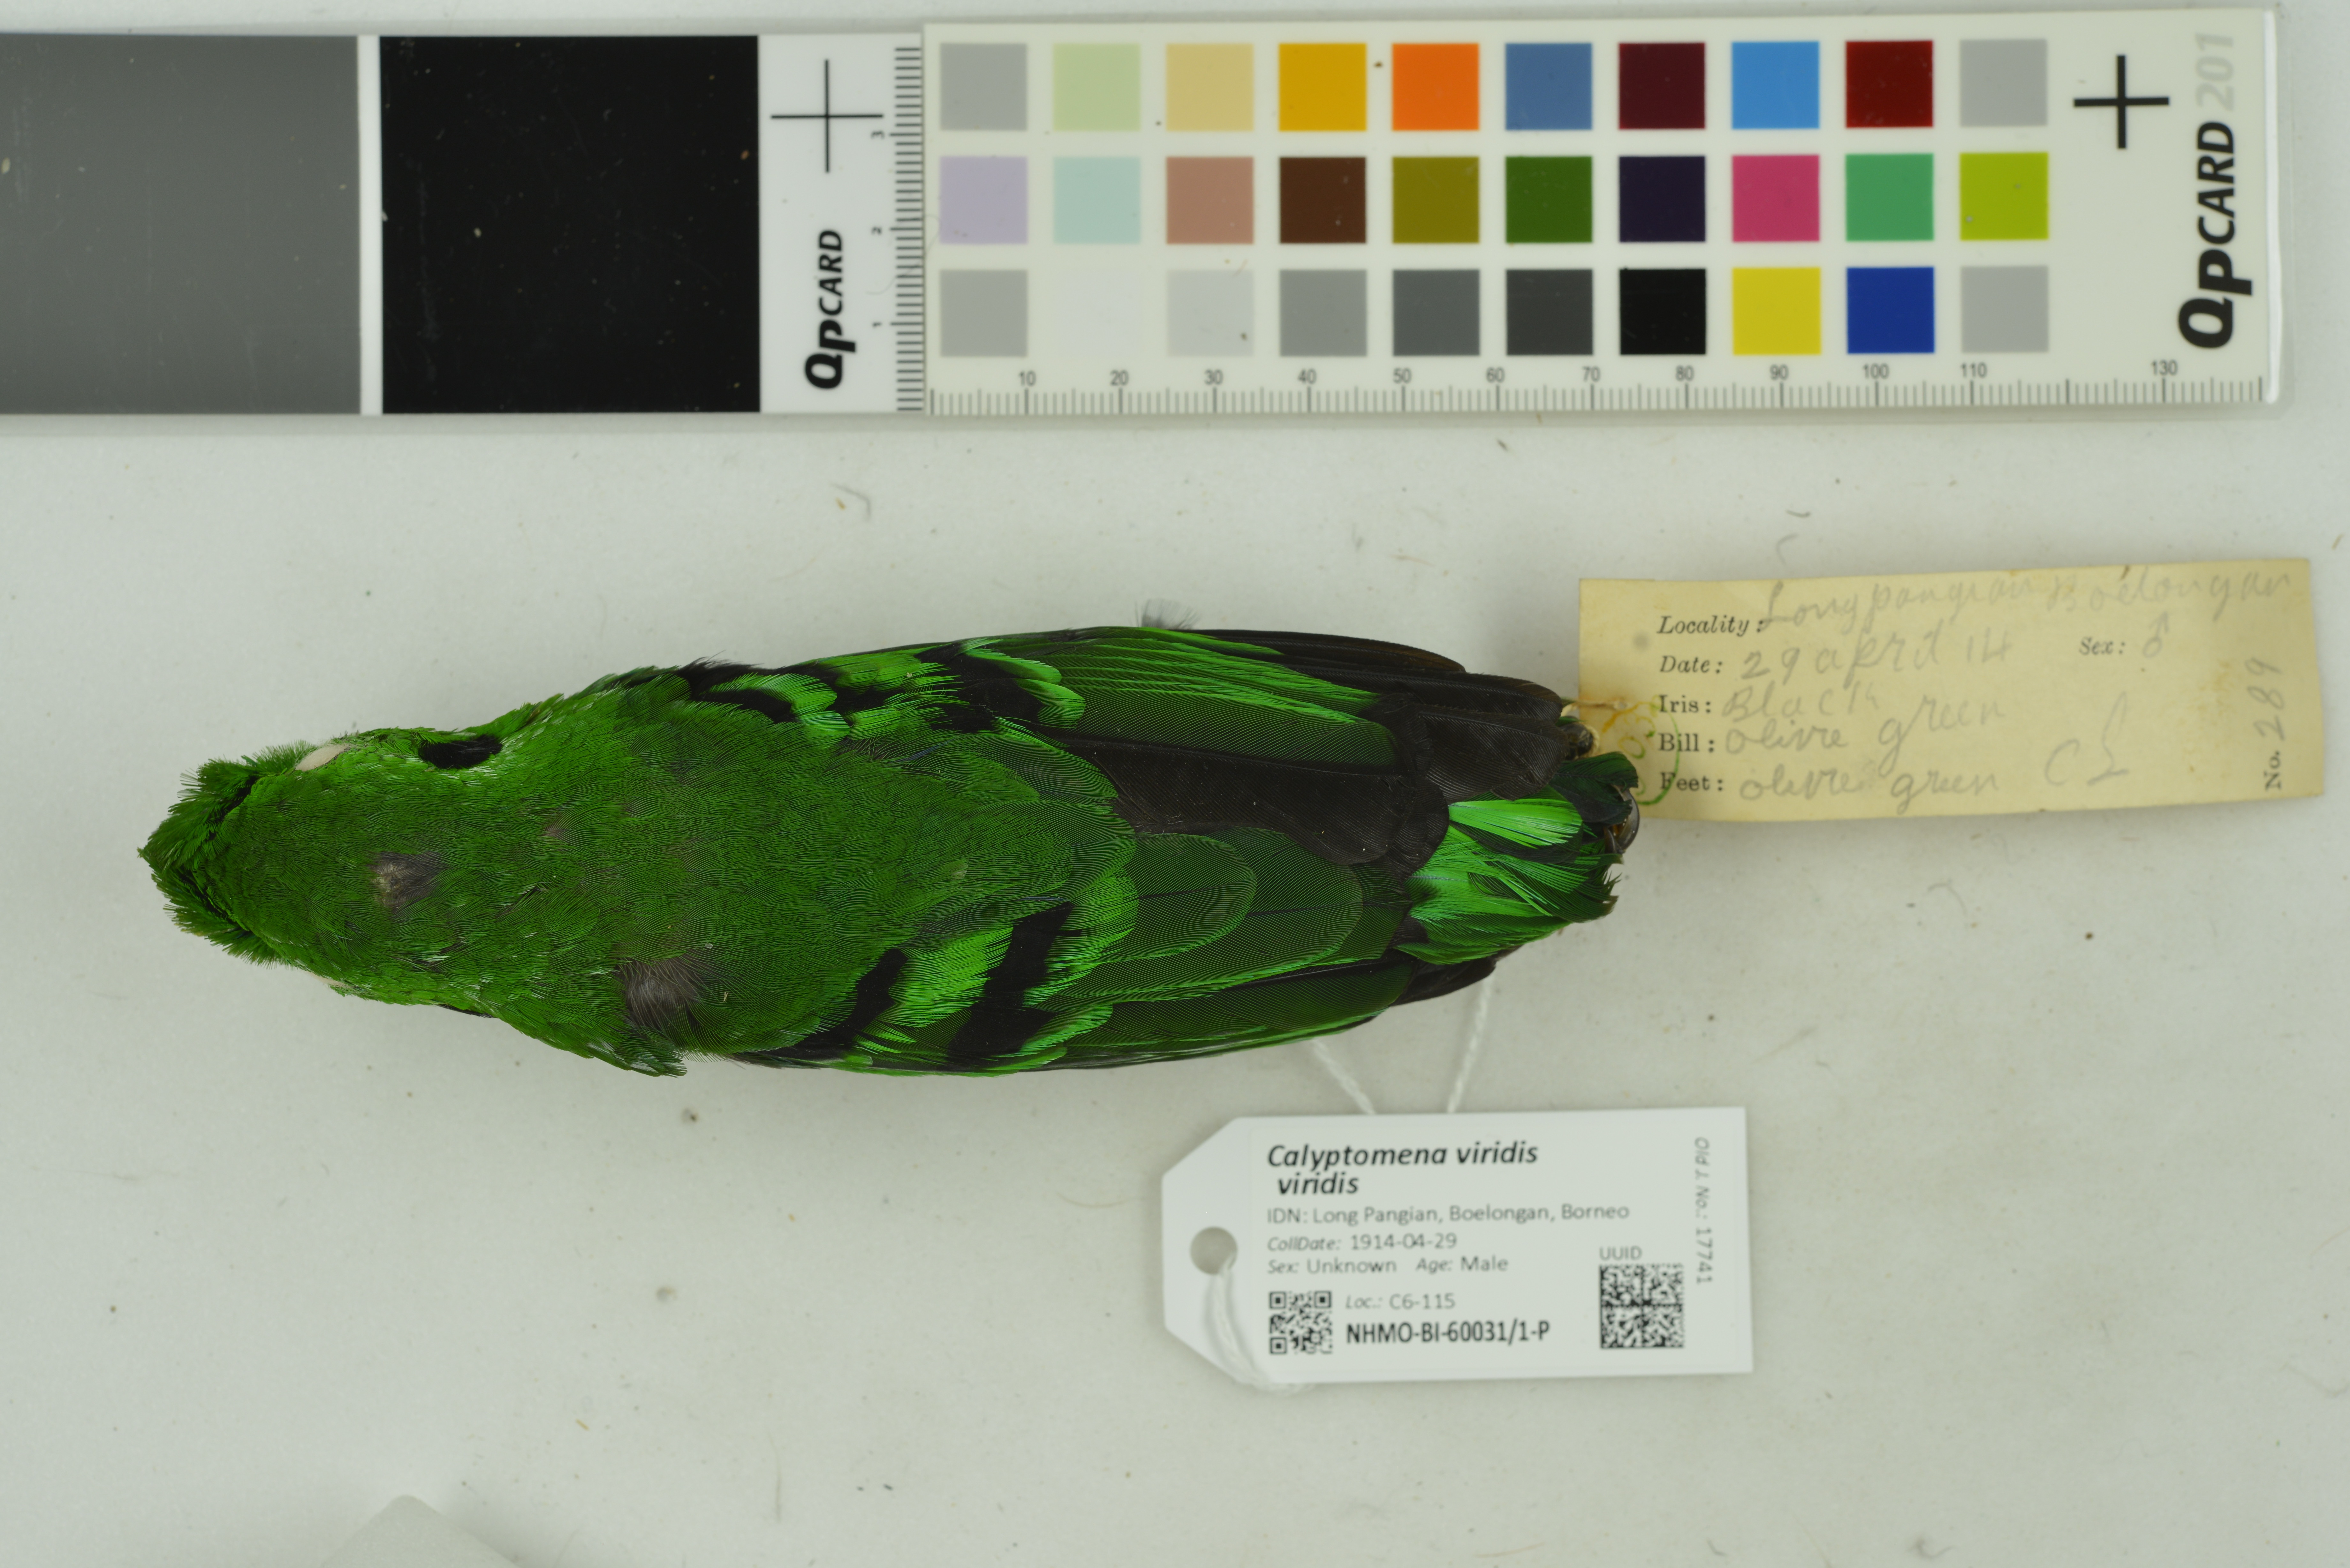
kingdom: Animalia
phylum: Chordata
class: Aves
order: Passeriformes
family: Eurylaimidae
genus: Calyptomena
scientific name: Calyptomena viridis
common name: Green broadbill
